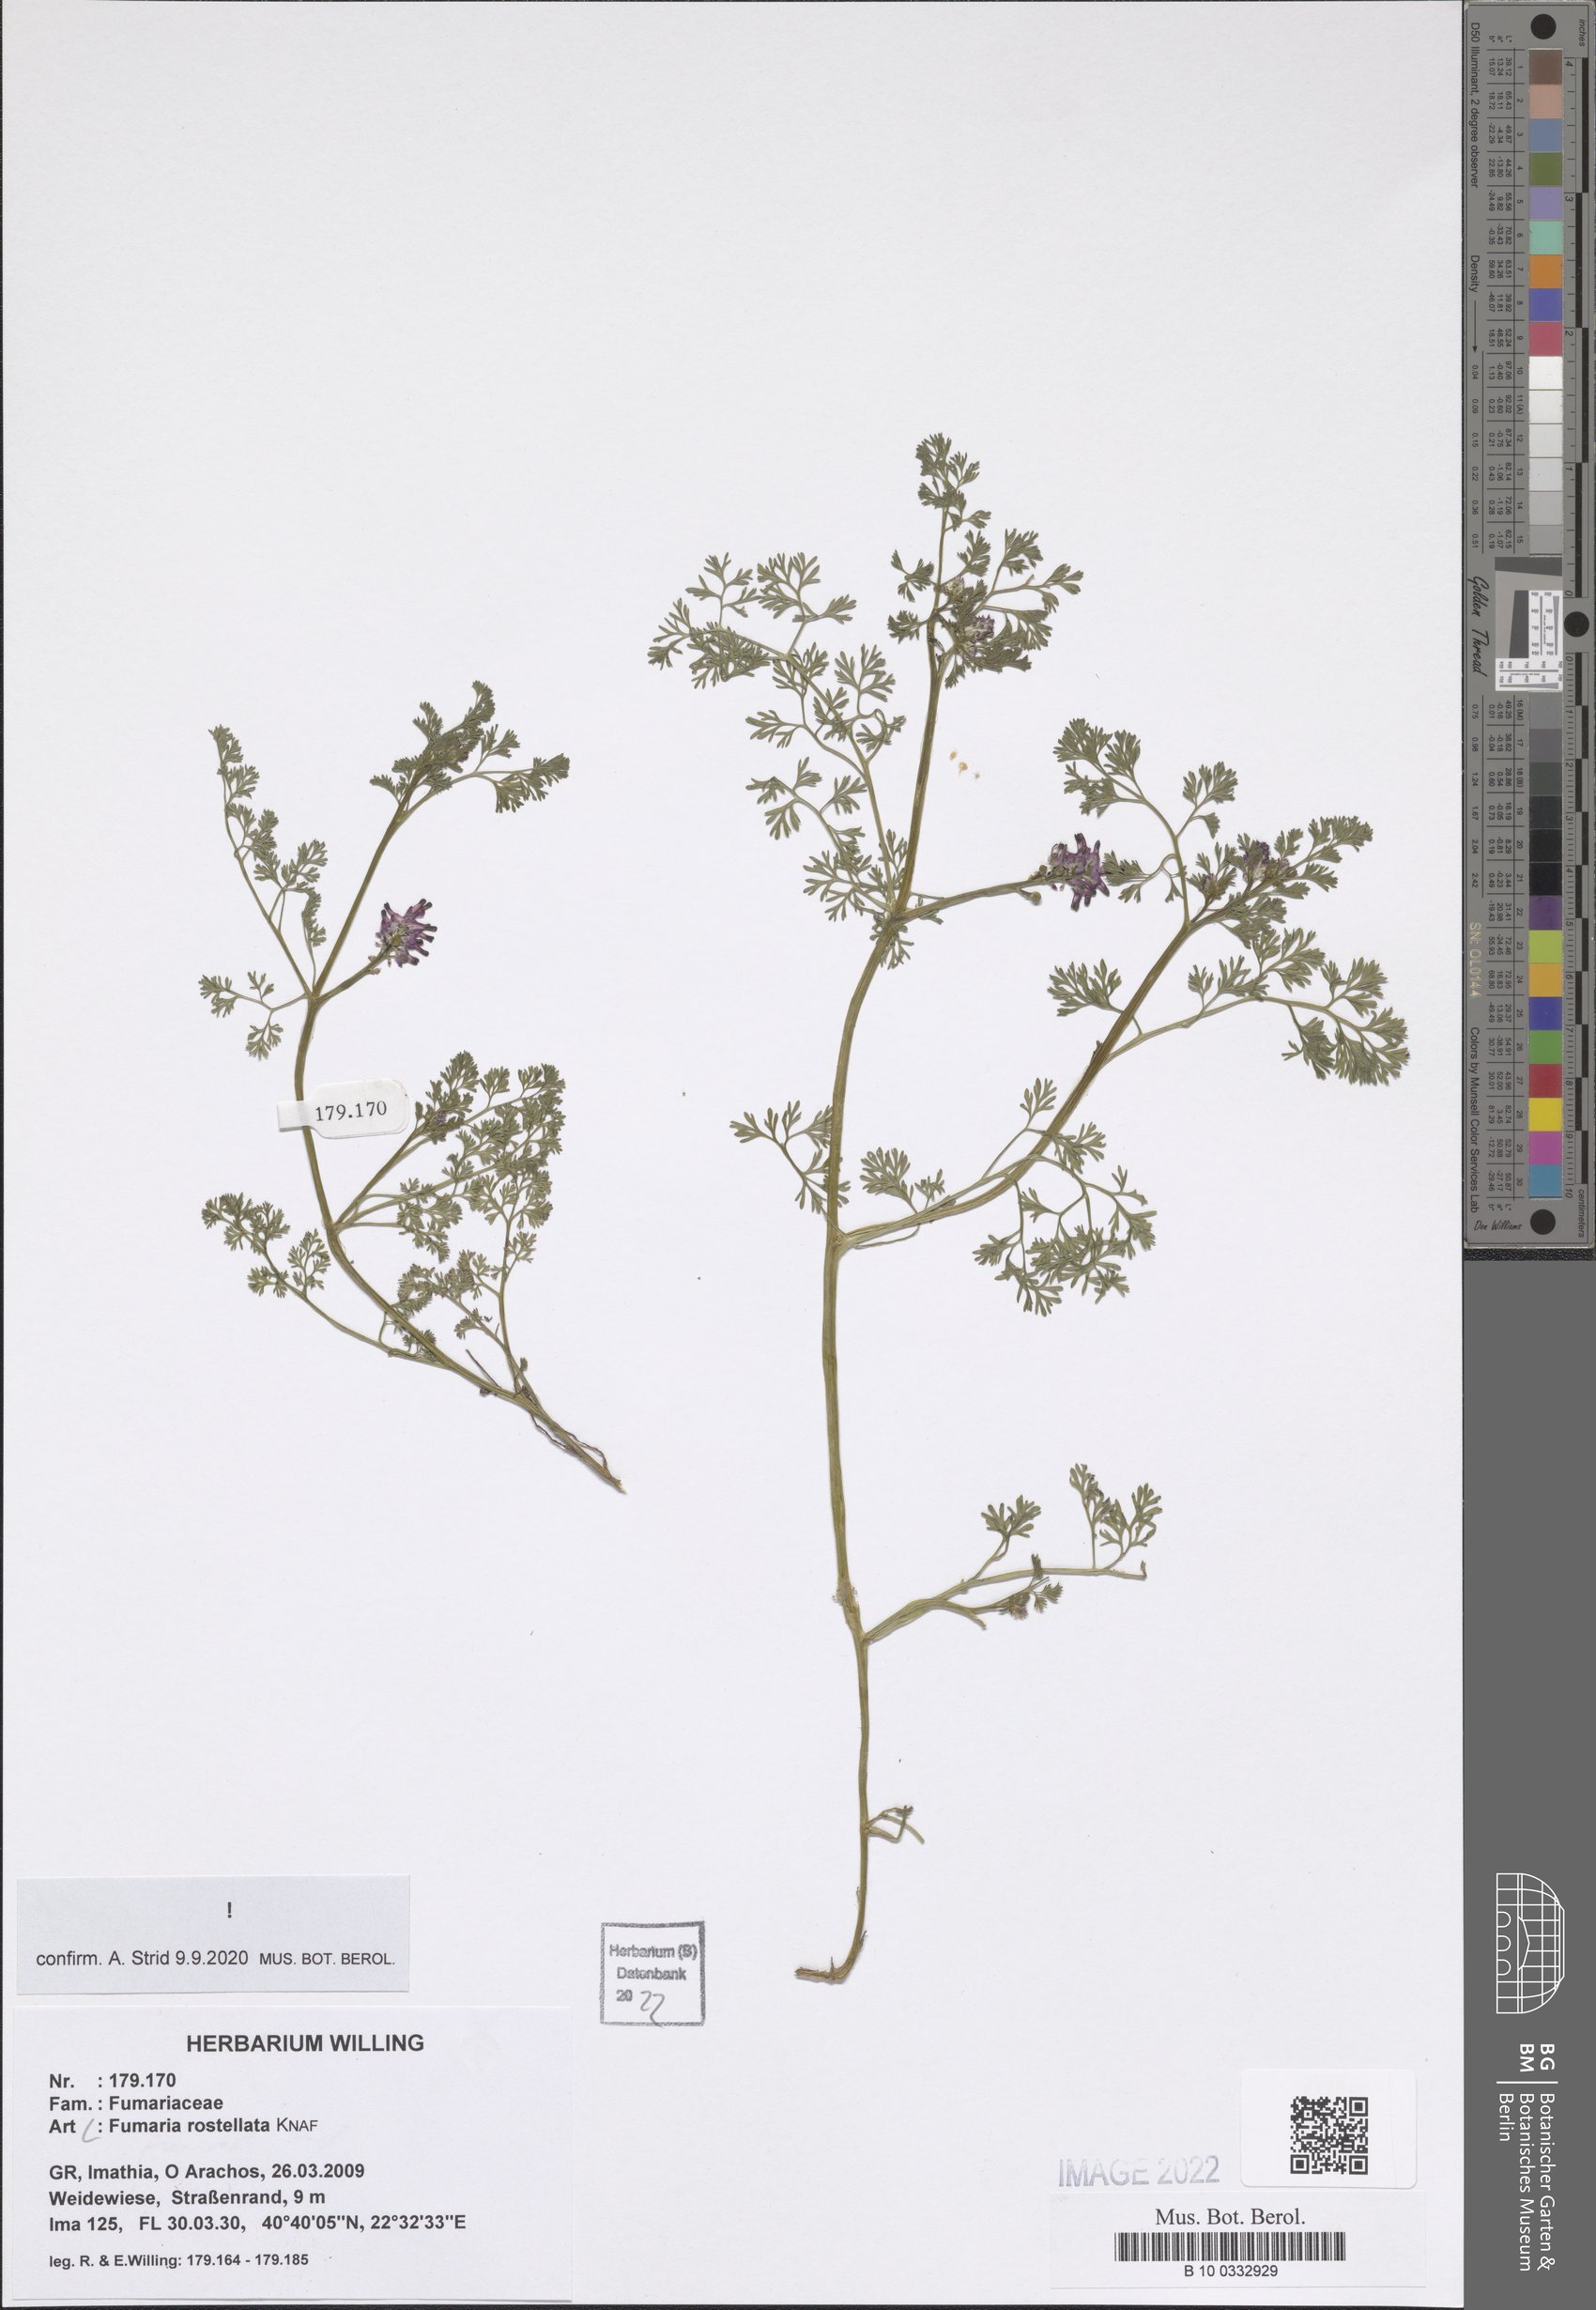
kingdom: Plantae
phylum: Tracheophyta
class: Magnoliopsida
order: Ranunculales
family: Papaveraceae
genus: Fumaria
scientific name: Fumaria rostellata
